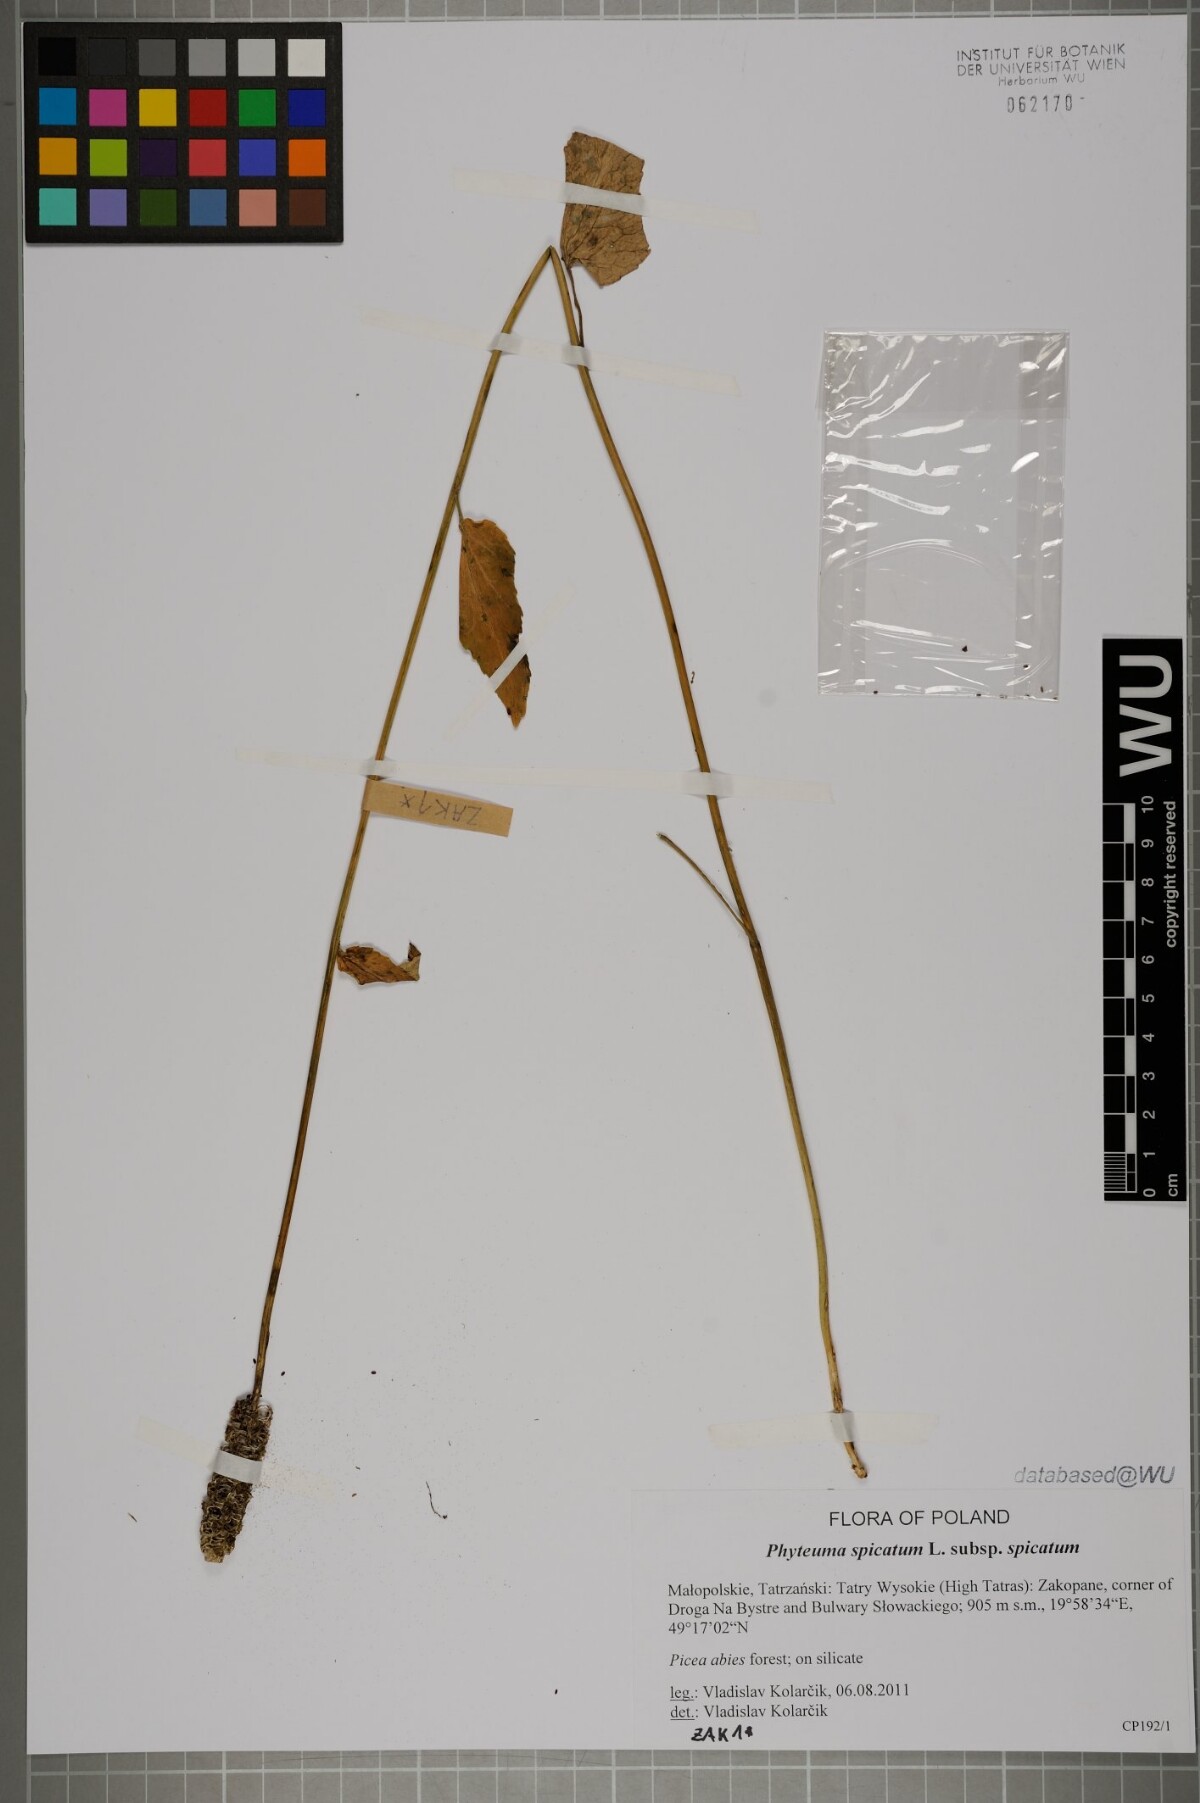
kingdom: Plantae
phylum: Tracheophyta
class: Magnoliopsida
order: Asterales
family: Campanulaceae
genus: Phyteuma
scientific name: Phyteuma spicatum
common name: Spiked rampion
